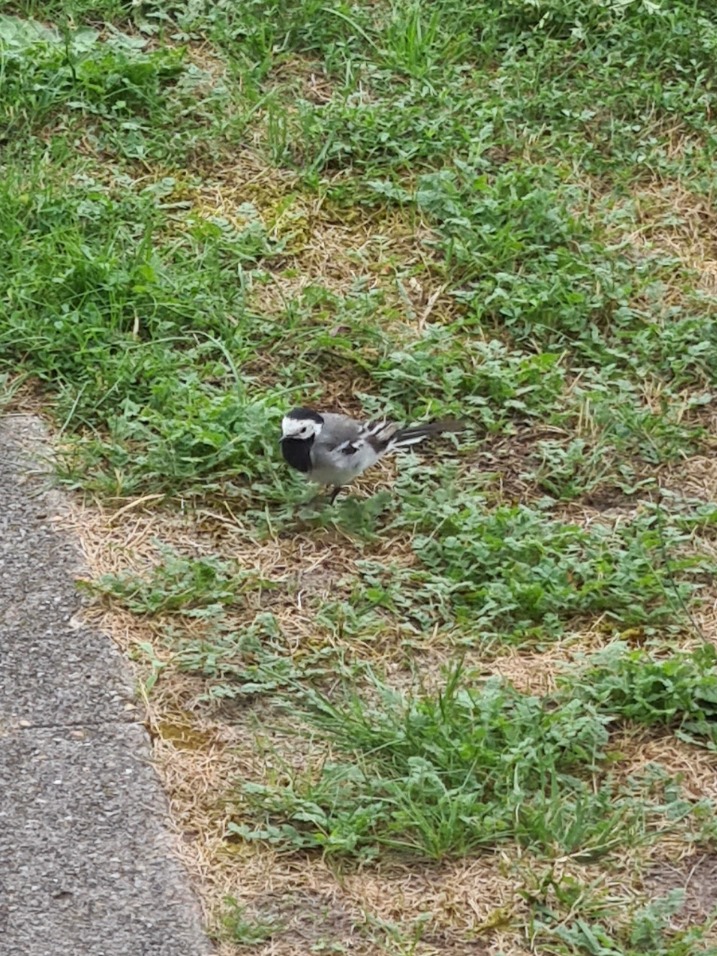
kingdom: Animalia
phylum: Chordata
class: Aves
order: Passeriformes
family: Motacillidae
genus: Motacilla
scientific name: Motacilla alba
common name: Hvid vipstjert
